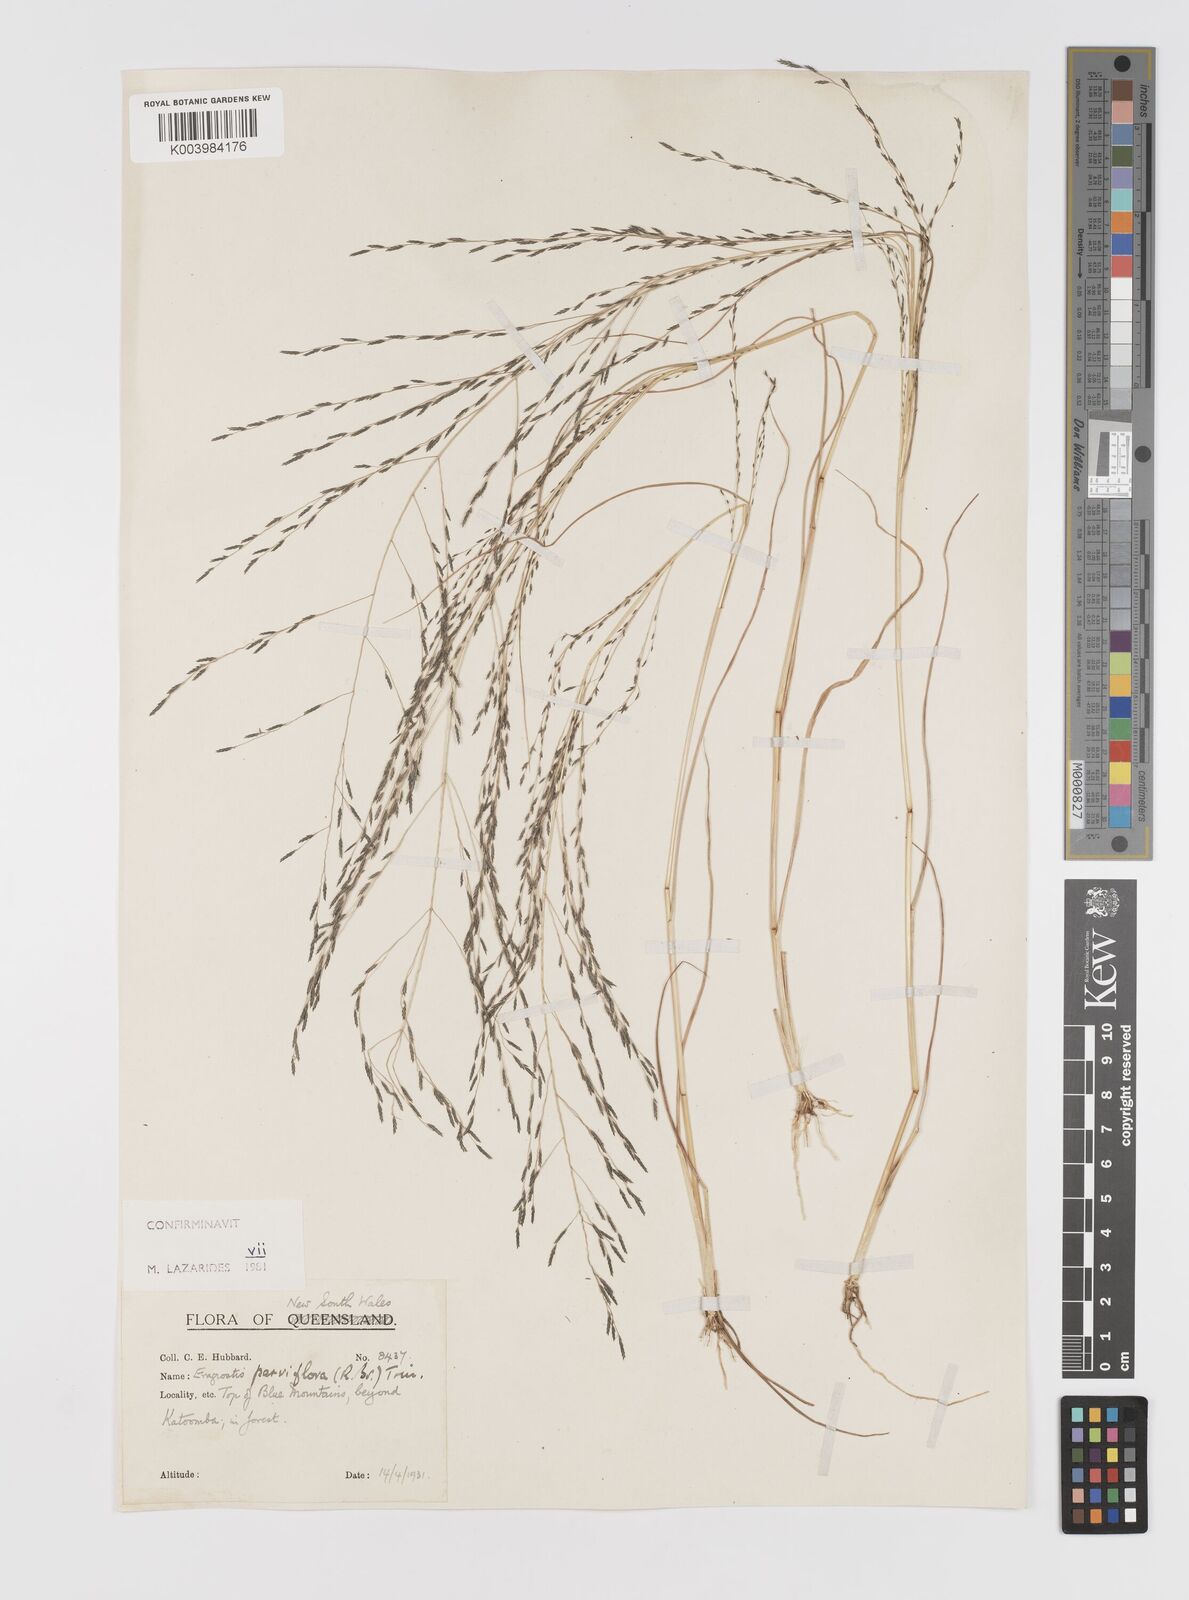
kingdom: Plantae
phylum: Tracheophyta
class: Liliopsida
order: Poales
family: Poaceae
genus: Eragrostis
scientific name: Eragrostis parviflora
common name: Weeping love-grass
